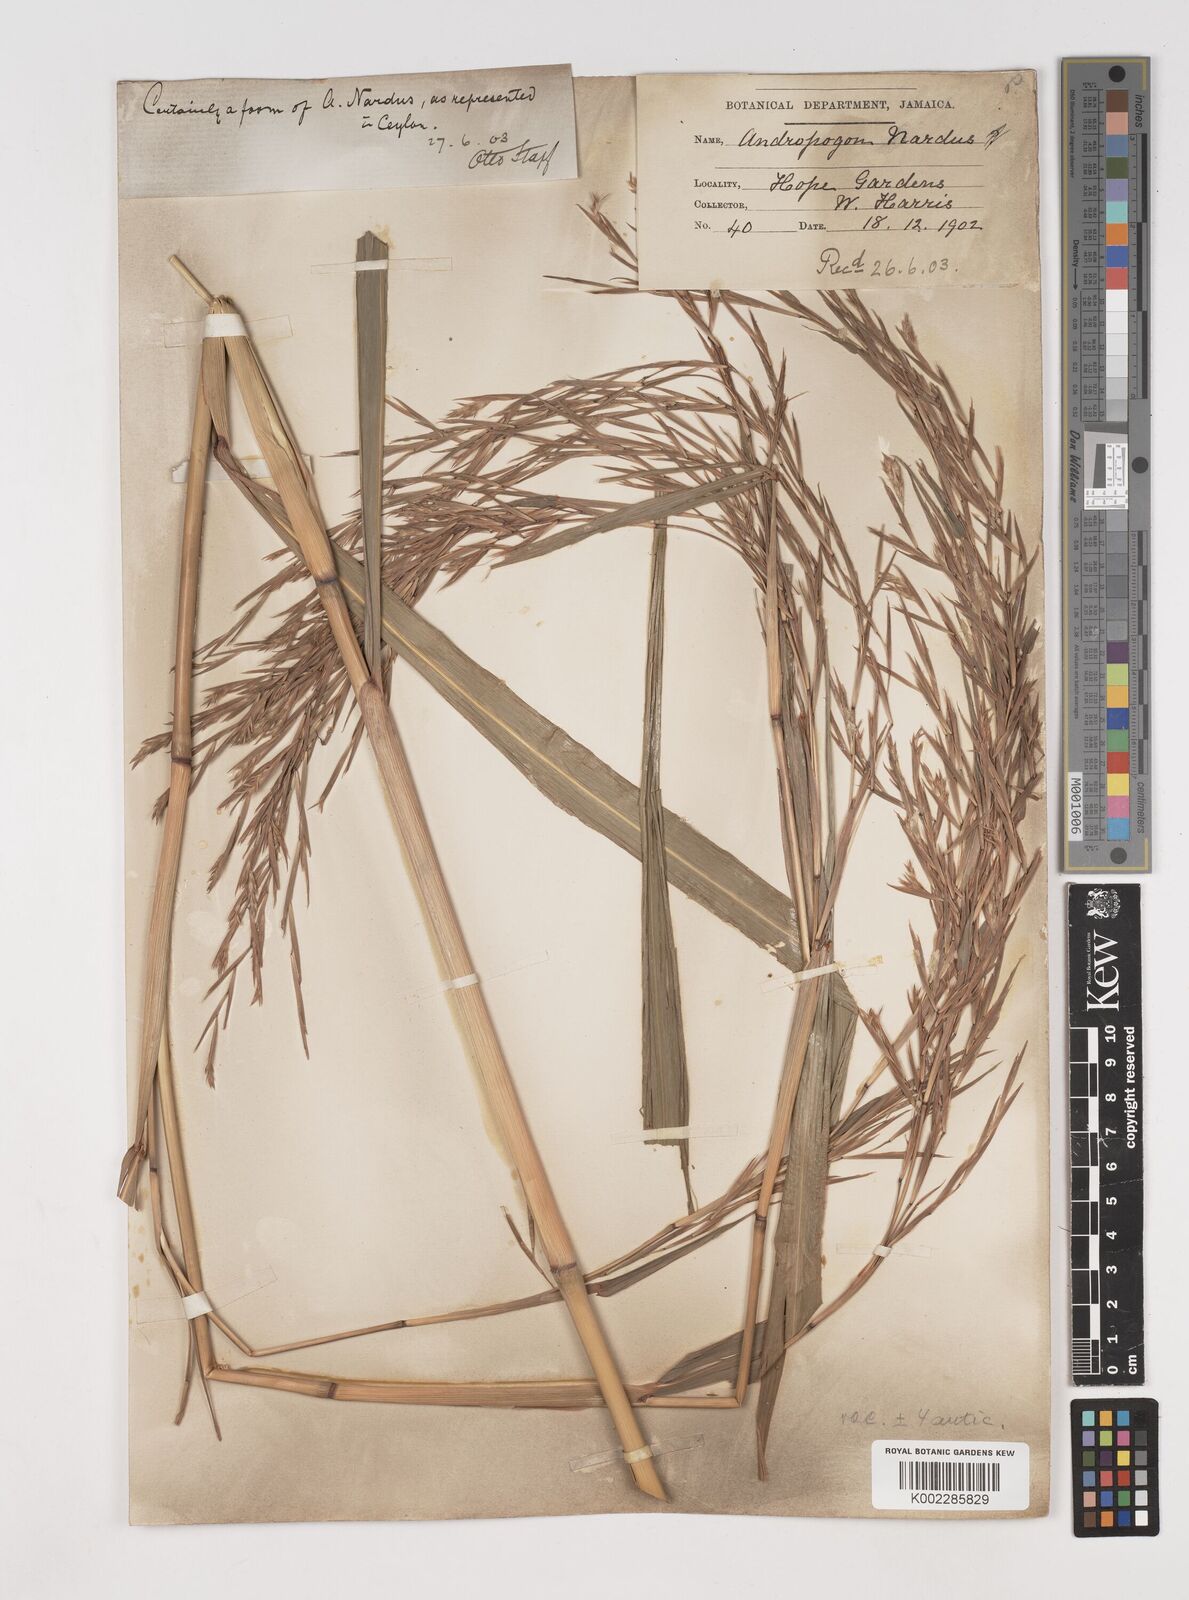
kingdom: Plantae
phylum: Tracheophyta
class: Liliopsida
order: Poales
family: Poaceae
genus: Cymbopogon
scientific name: Cymbopogon winterianus
